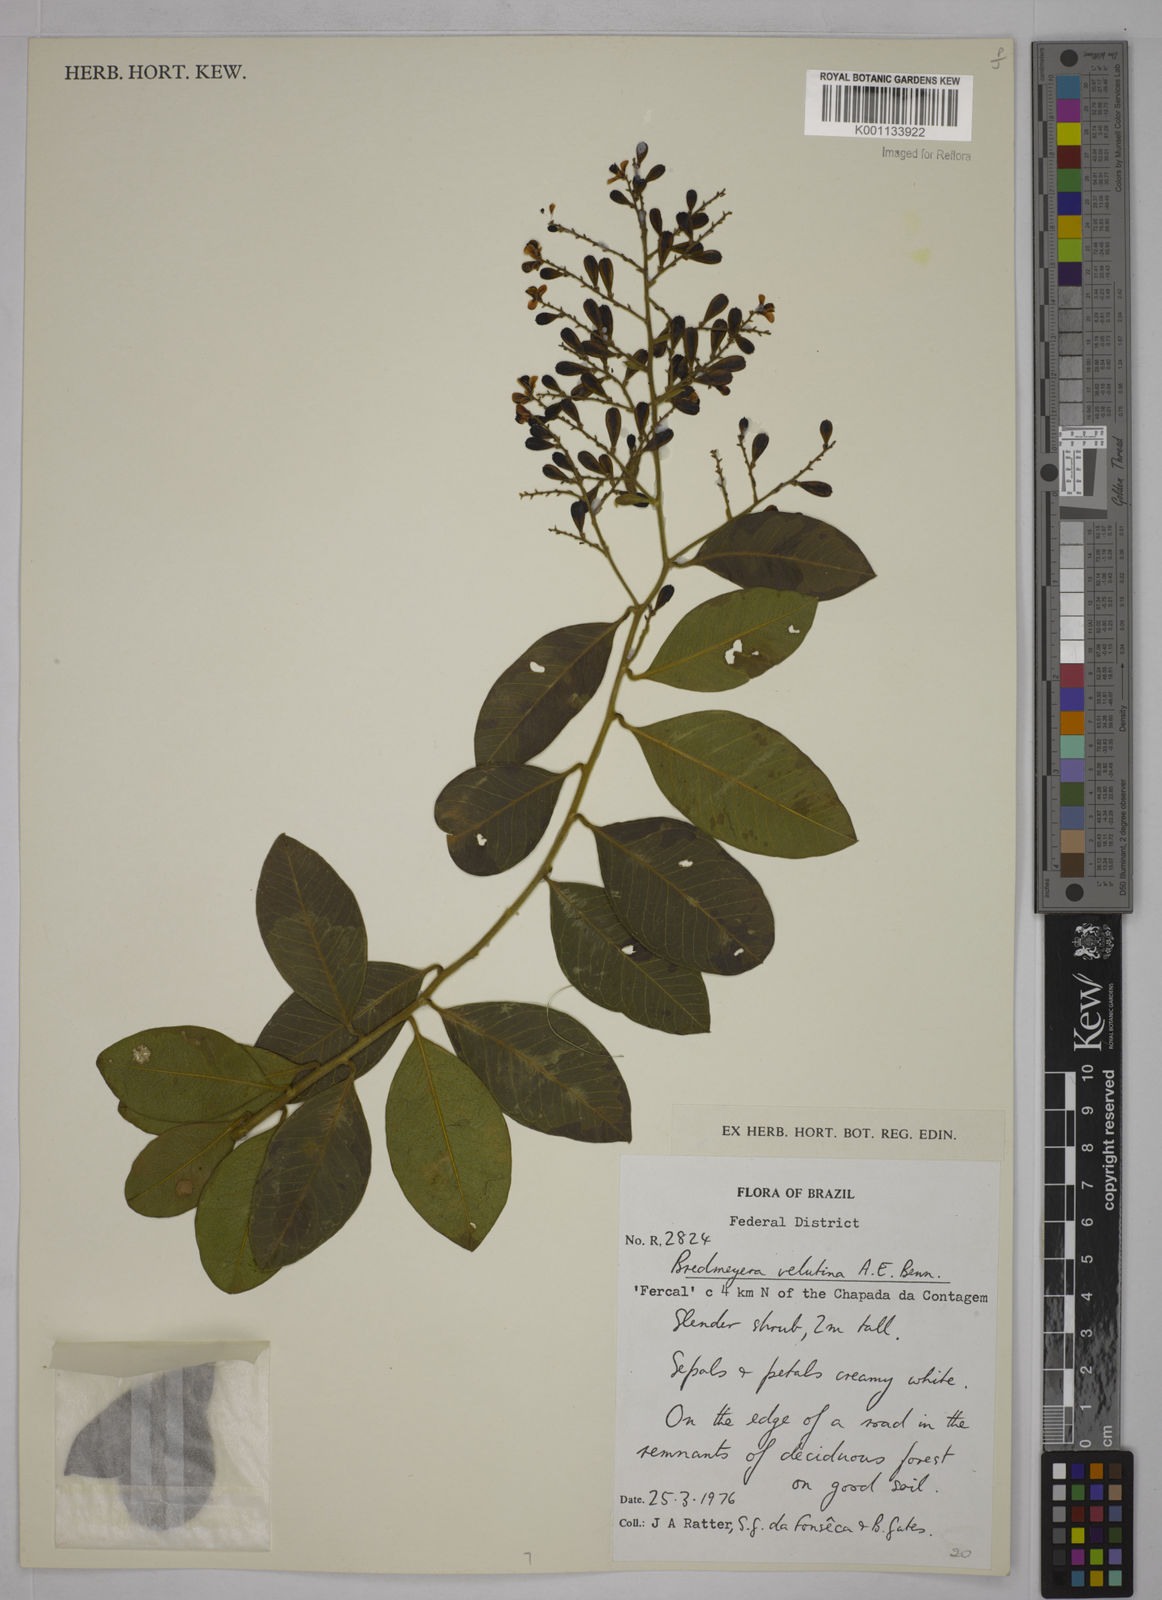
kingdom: Plantae
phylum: Tracheophyta
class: Magnoliopsida
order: Fabales
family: Polygalaceae
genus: Bredemeyera
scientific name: Bredemeyera hebeclada
